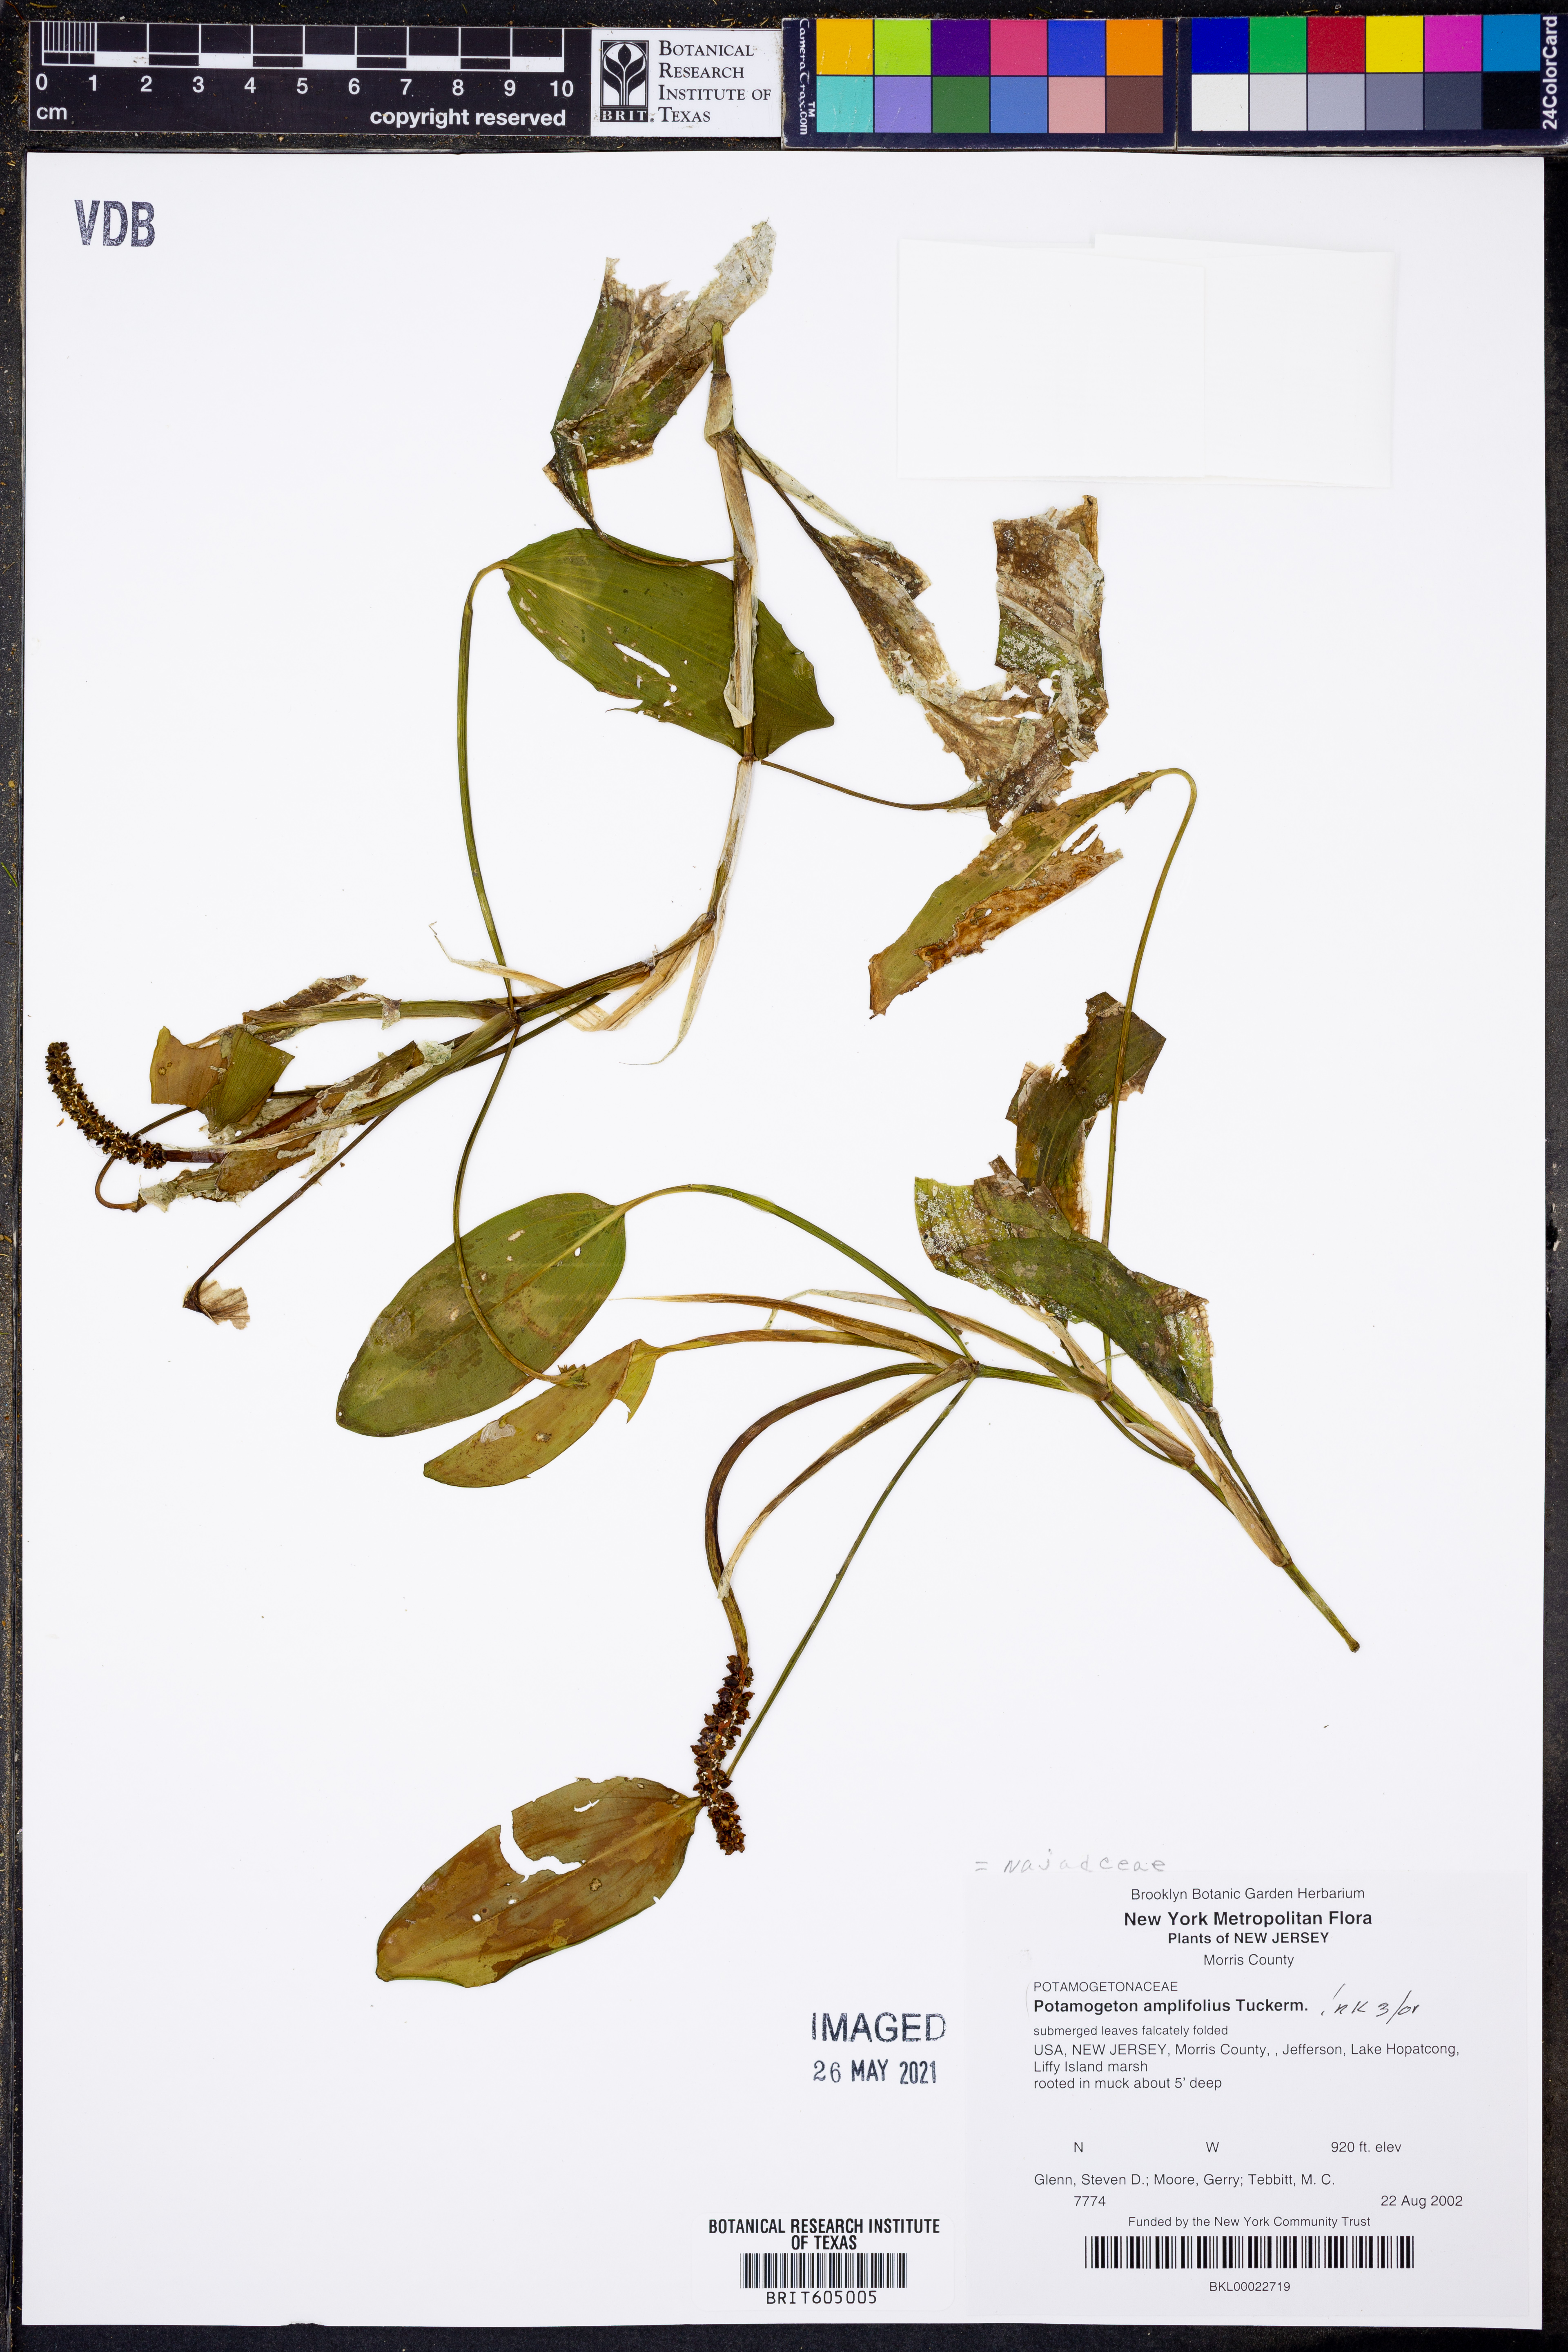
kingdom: Plantae
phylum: Tracheophyta
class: Liliopsida
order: Alismatales
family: Potamogetonaceae
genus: Potamogeton
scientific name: Potamogeton amplifolius
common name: Broad-leaved pondweed
